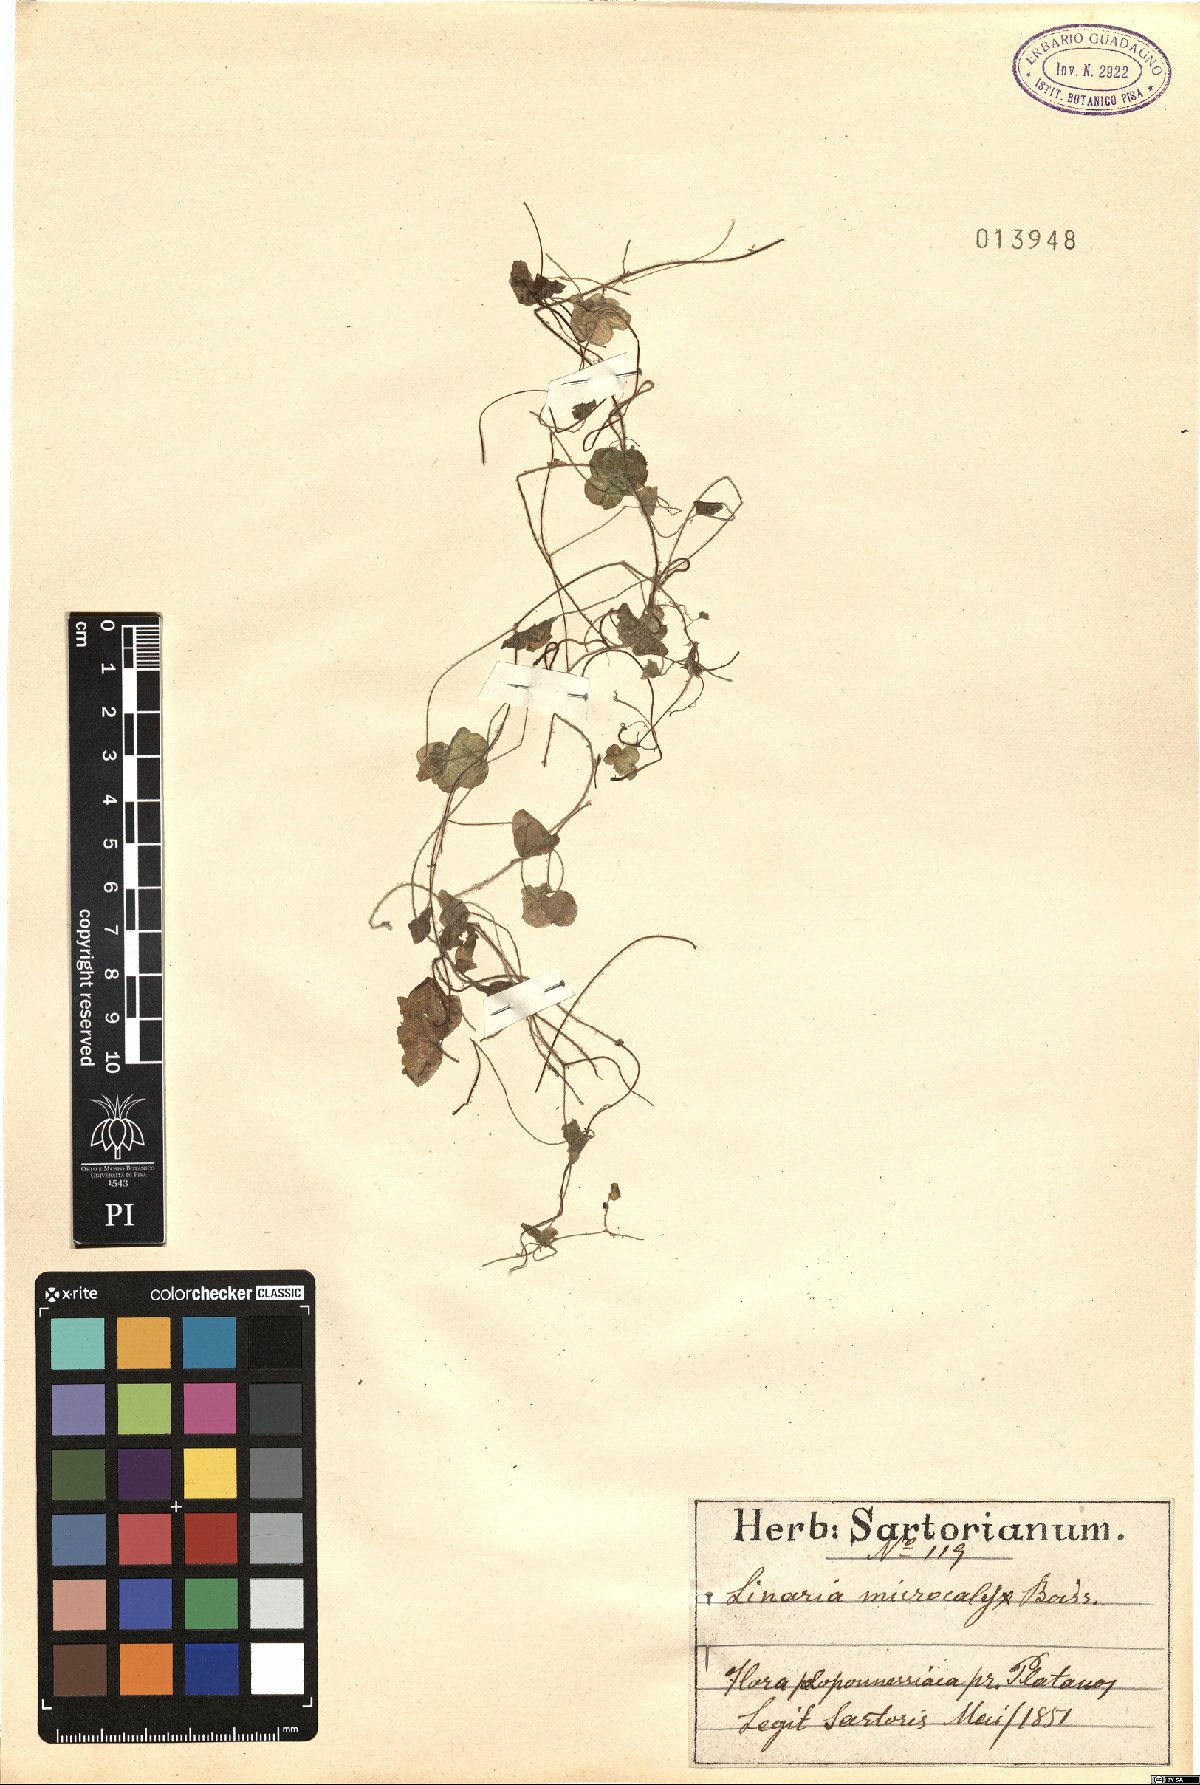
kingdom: Plantae
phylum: Tracheophyta
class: Magnoliopsida
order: Lamiales
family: Plantaginaceae
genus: Cymbalaria
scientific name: Cymbalaria microcalyx
